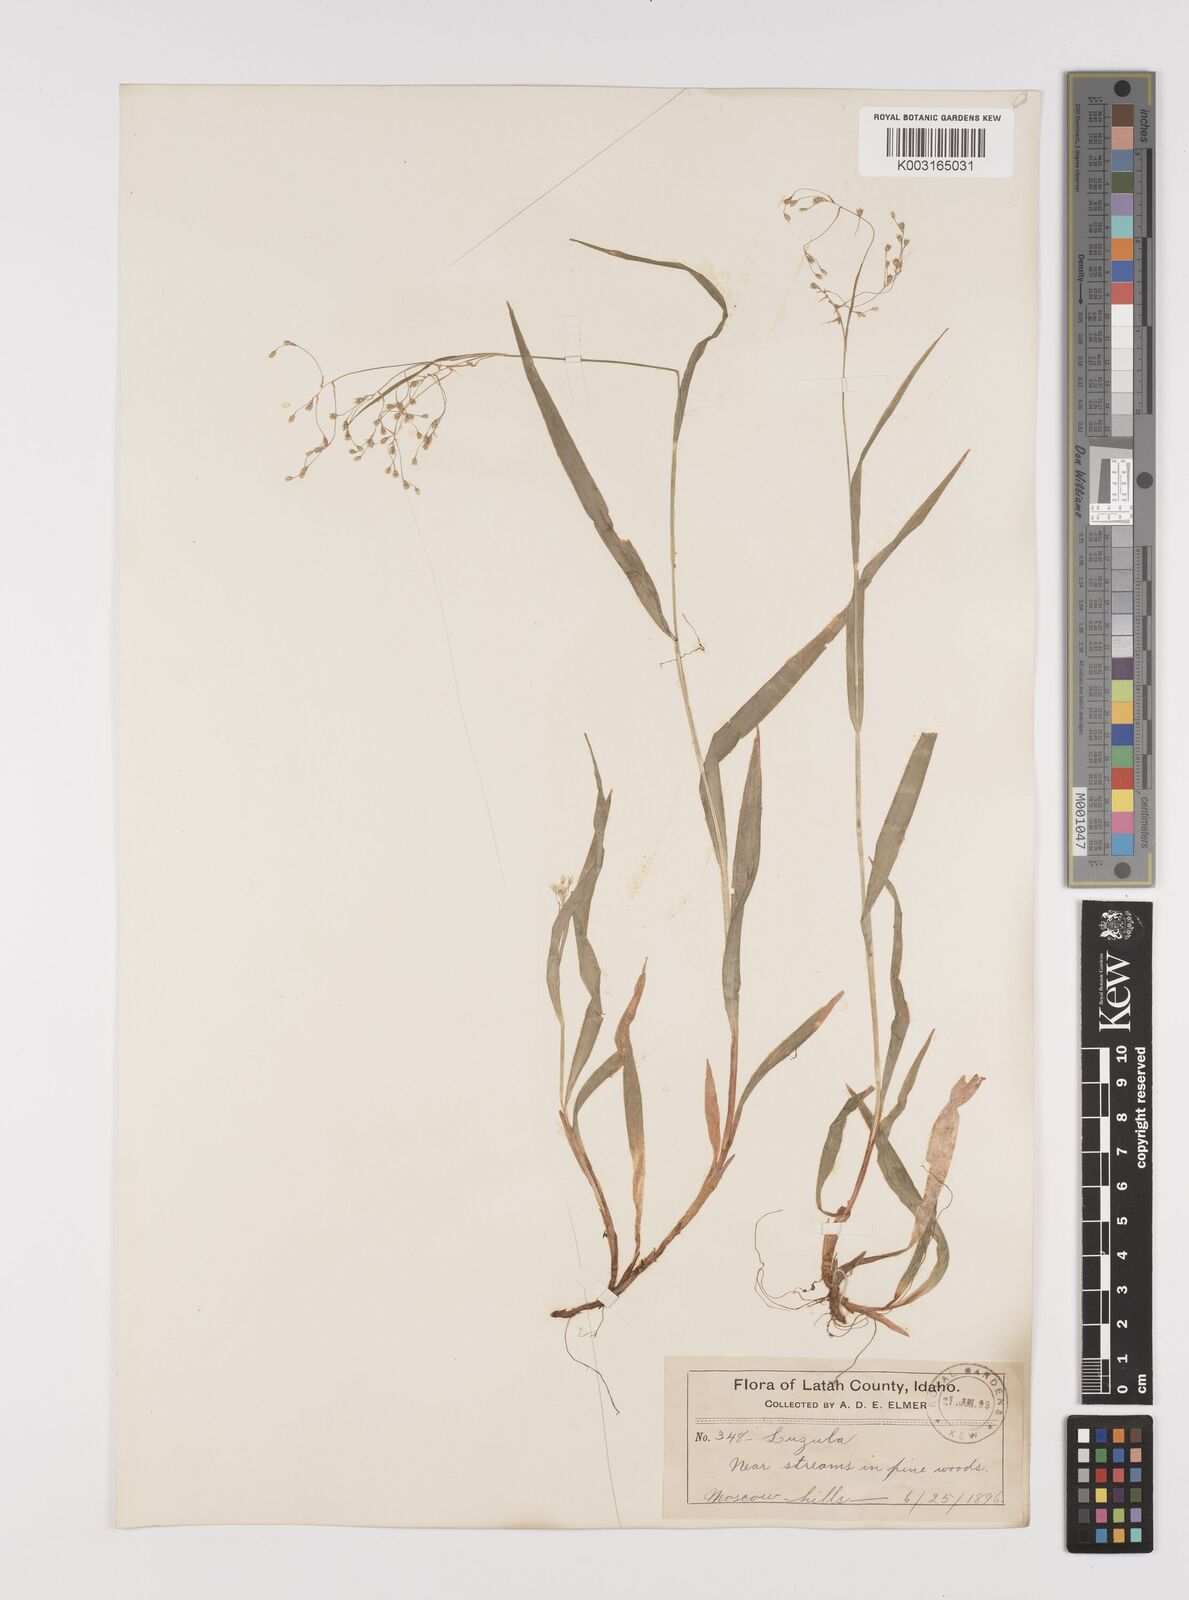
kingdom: Plantae
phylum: Tracheophyta
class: Liliopsida
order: Poales
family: Juncaceae
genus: Luzula
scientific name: Luzula parviflora
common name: Millet woodrush
